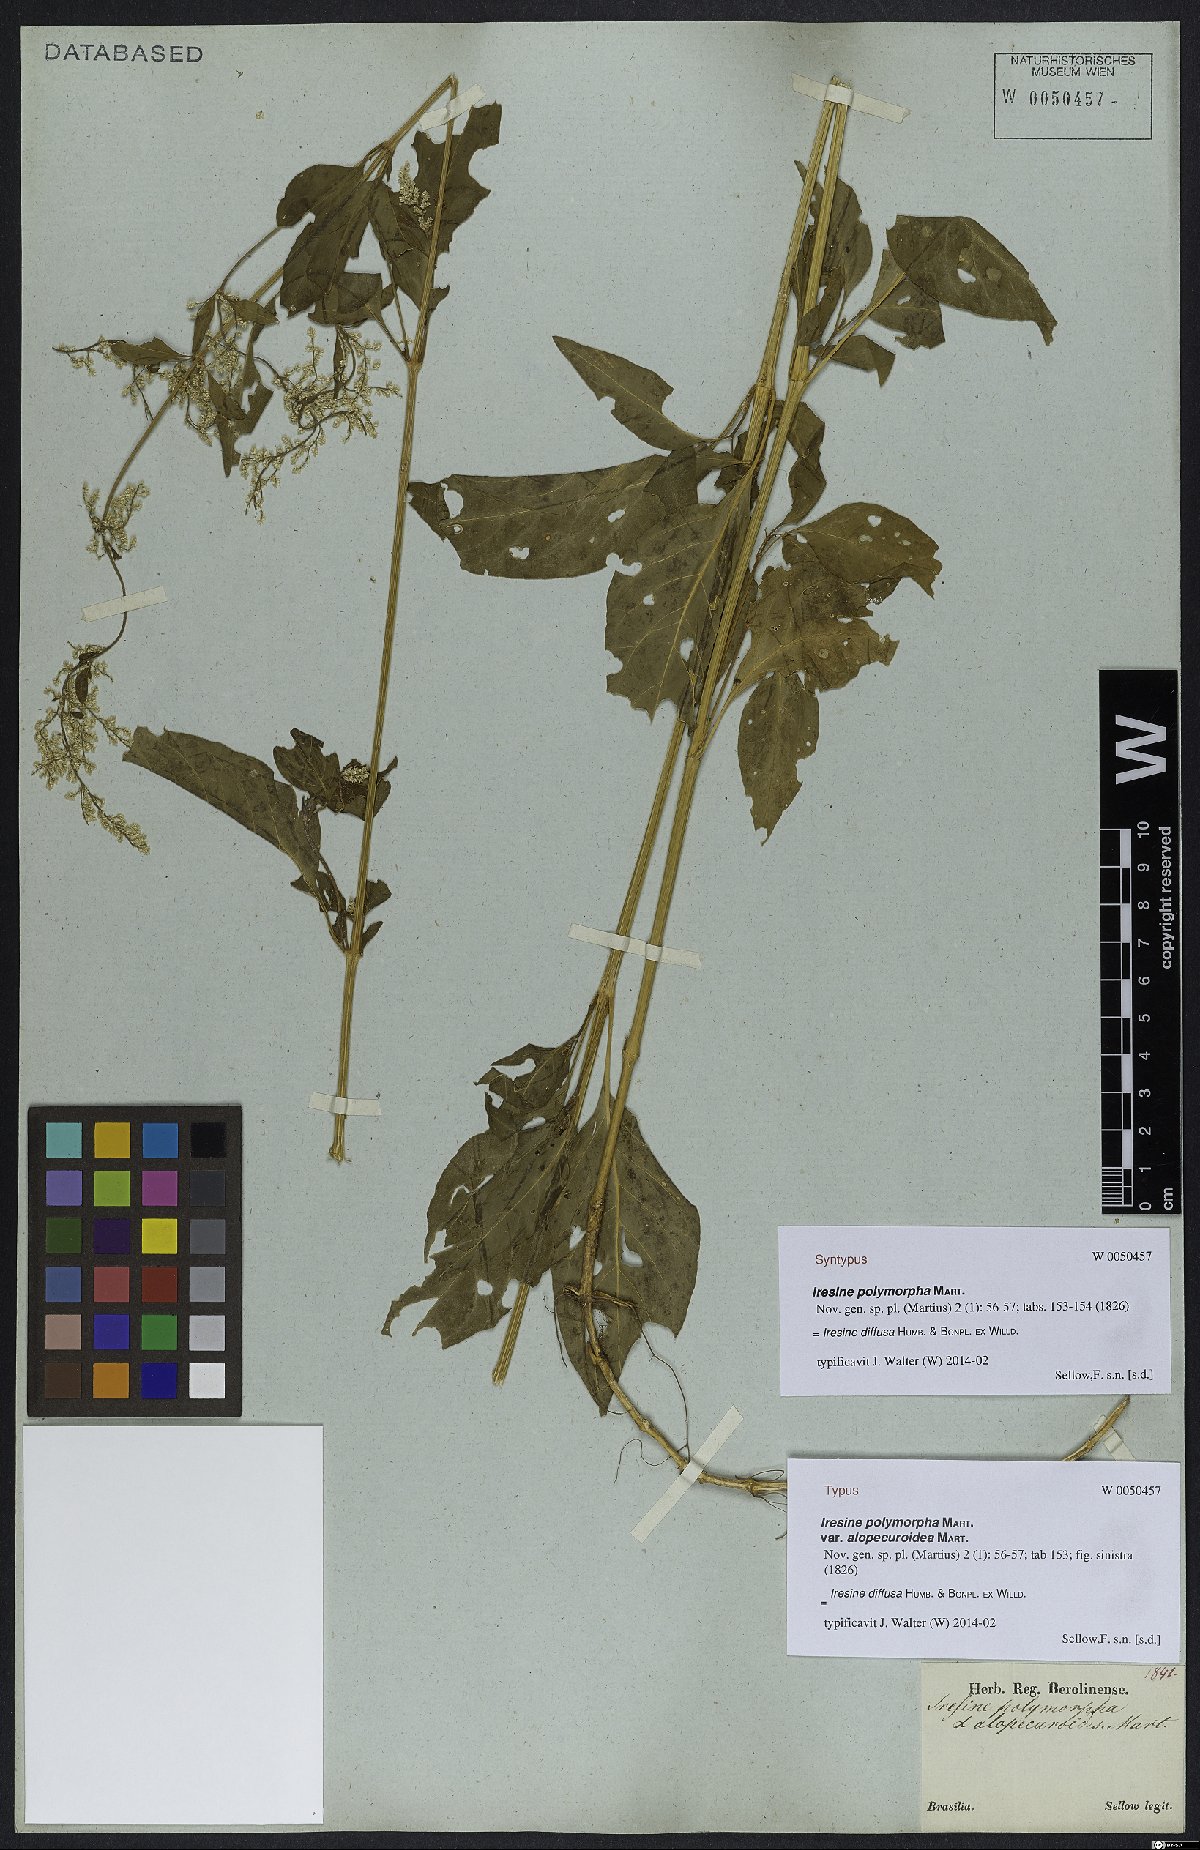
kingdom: Plantae
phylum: Tracheophyta
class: Magnoliopsida
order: Caryophyllales
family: Amaranthaceae
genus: Iresine
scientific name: Iresine diffusa
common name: Juba's-bush
